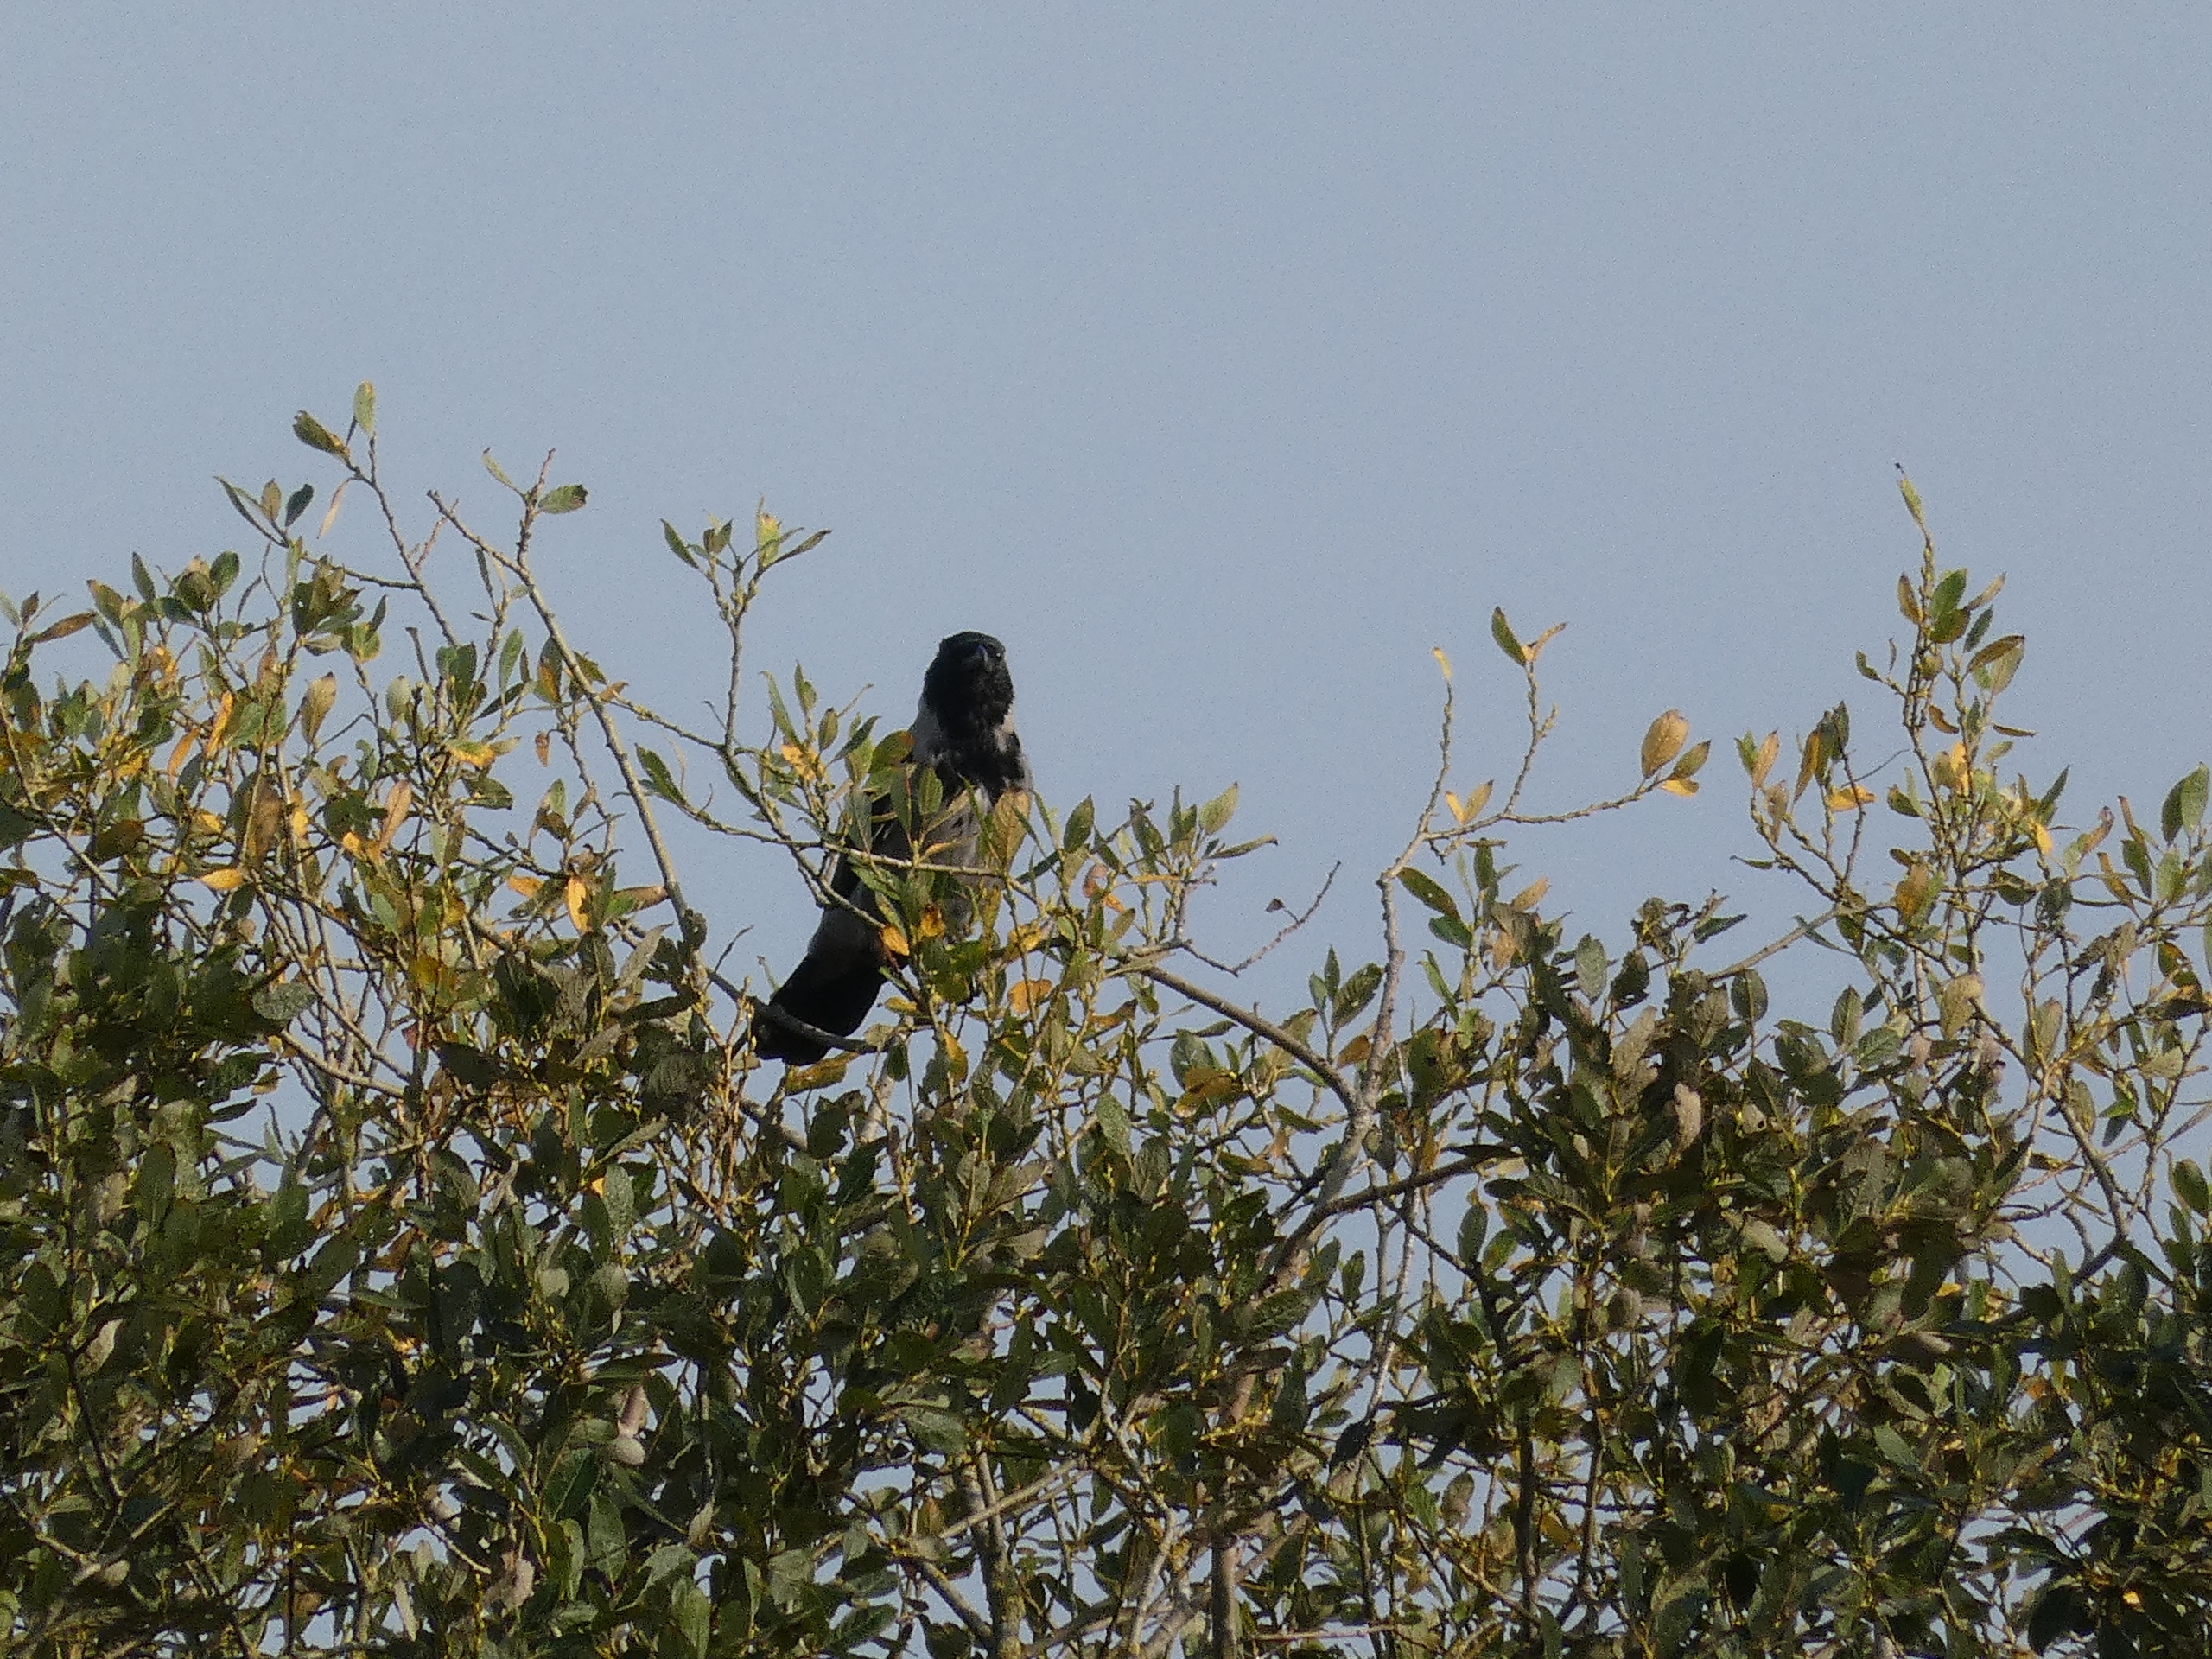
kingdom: Animalia
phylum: Chordata
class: Aves
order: Passeriformes
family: Corvidae
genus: Corvus
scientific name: Corvus cornix
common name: Gråkrage
